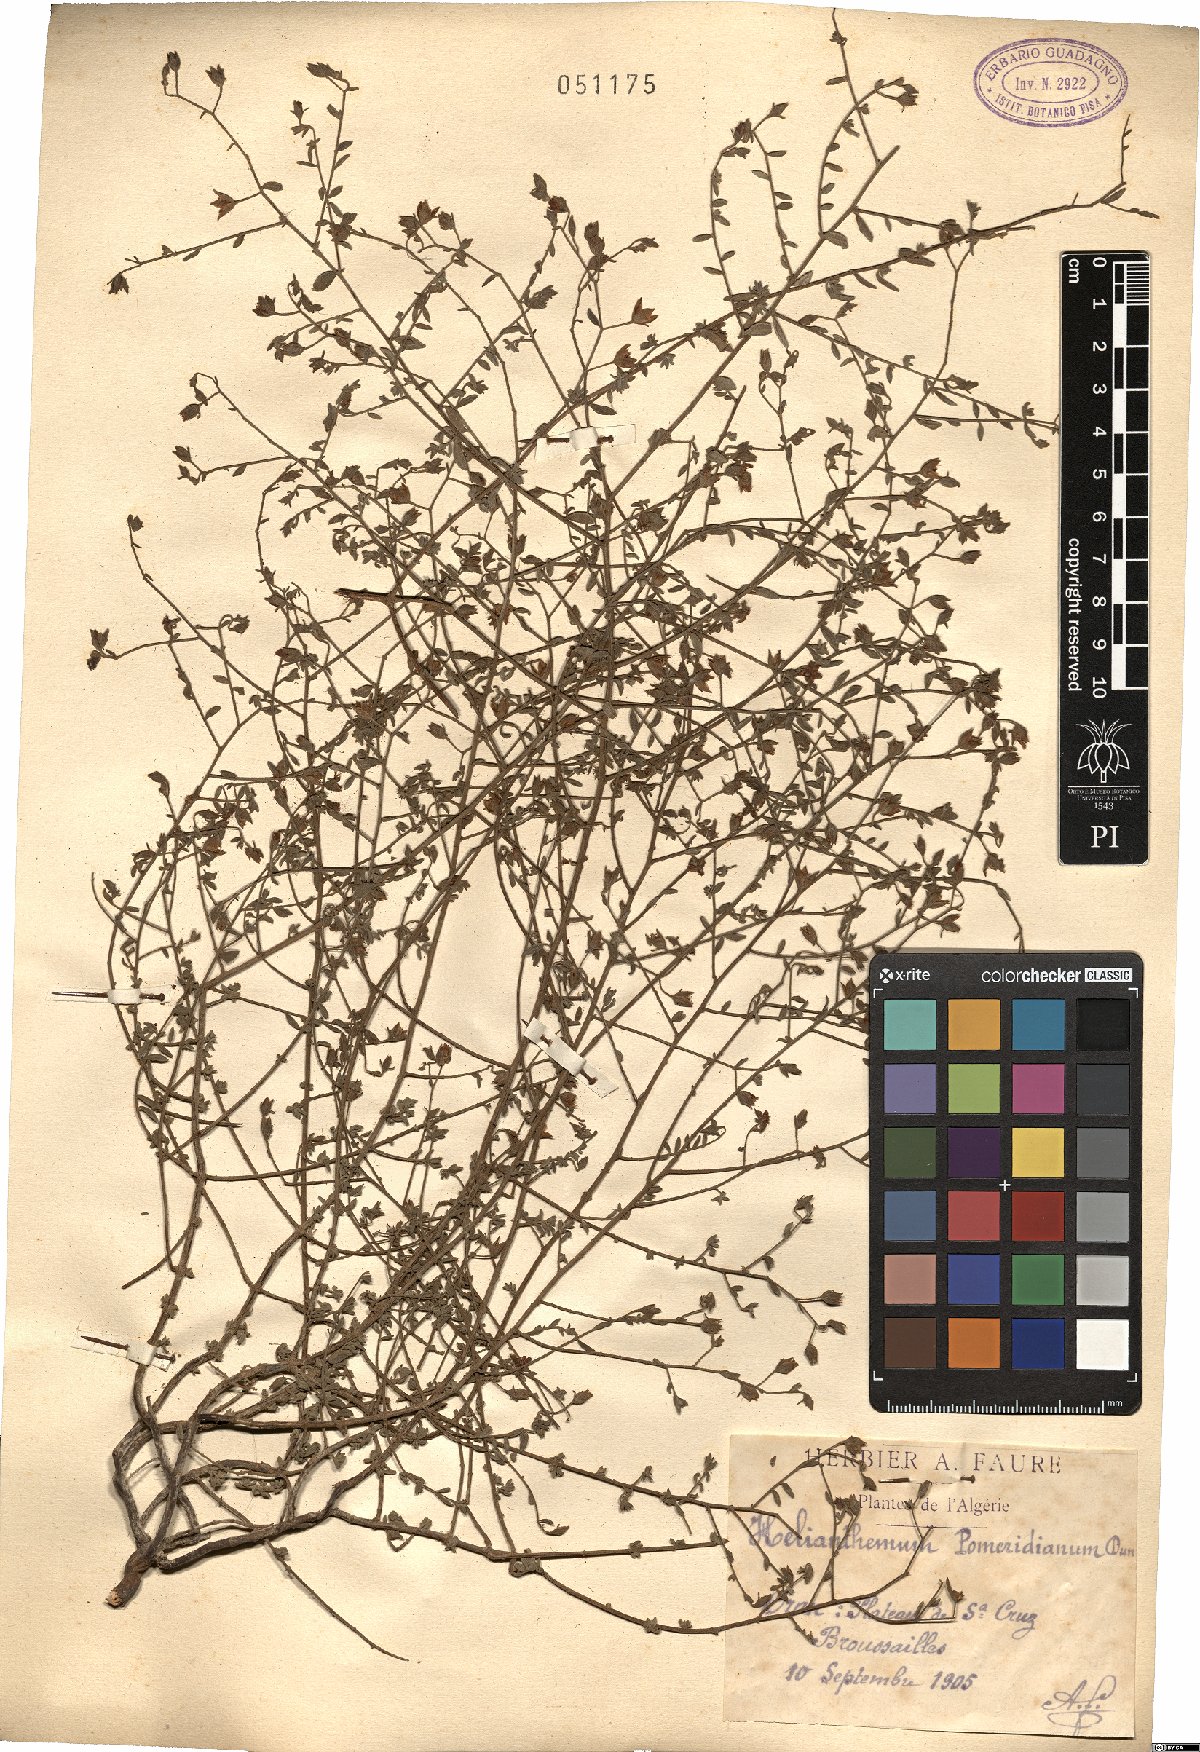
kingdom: Plantae
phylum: Tracheophyta
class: Magnoliopsida
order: Malvales
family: Cistaceae
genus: Helianthemum
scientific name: Helianthemum pomeridianum
